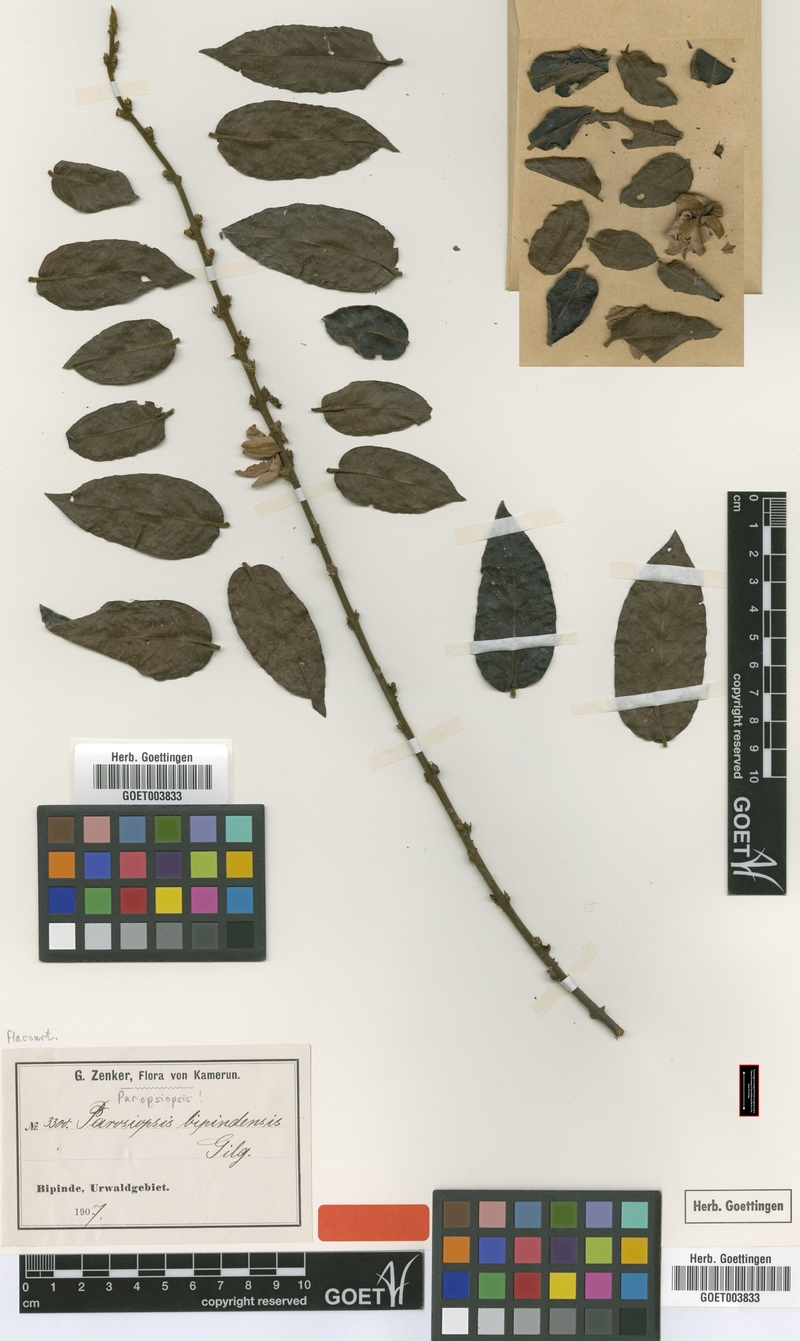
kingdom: Plantae
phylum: Tracheophyta
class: Magnoliopsida
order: Malpighiales
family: Passifloraceae
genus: Paropsiopsis
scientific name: Paropsiopsis decandra
